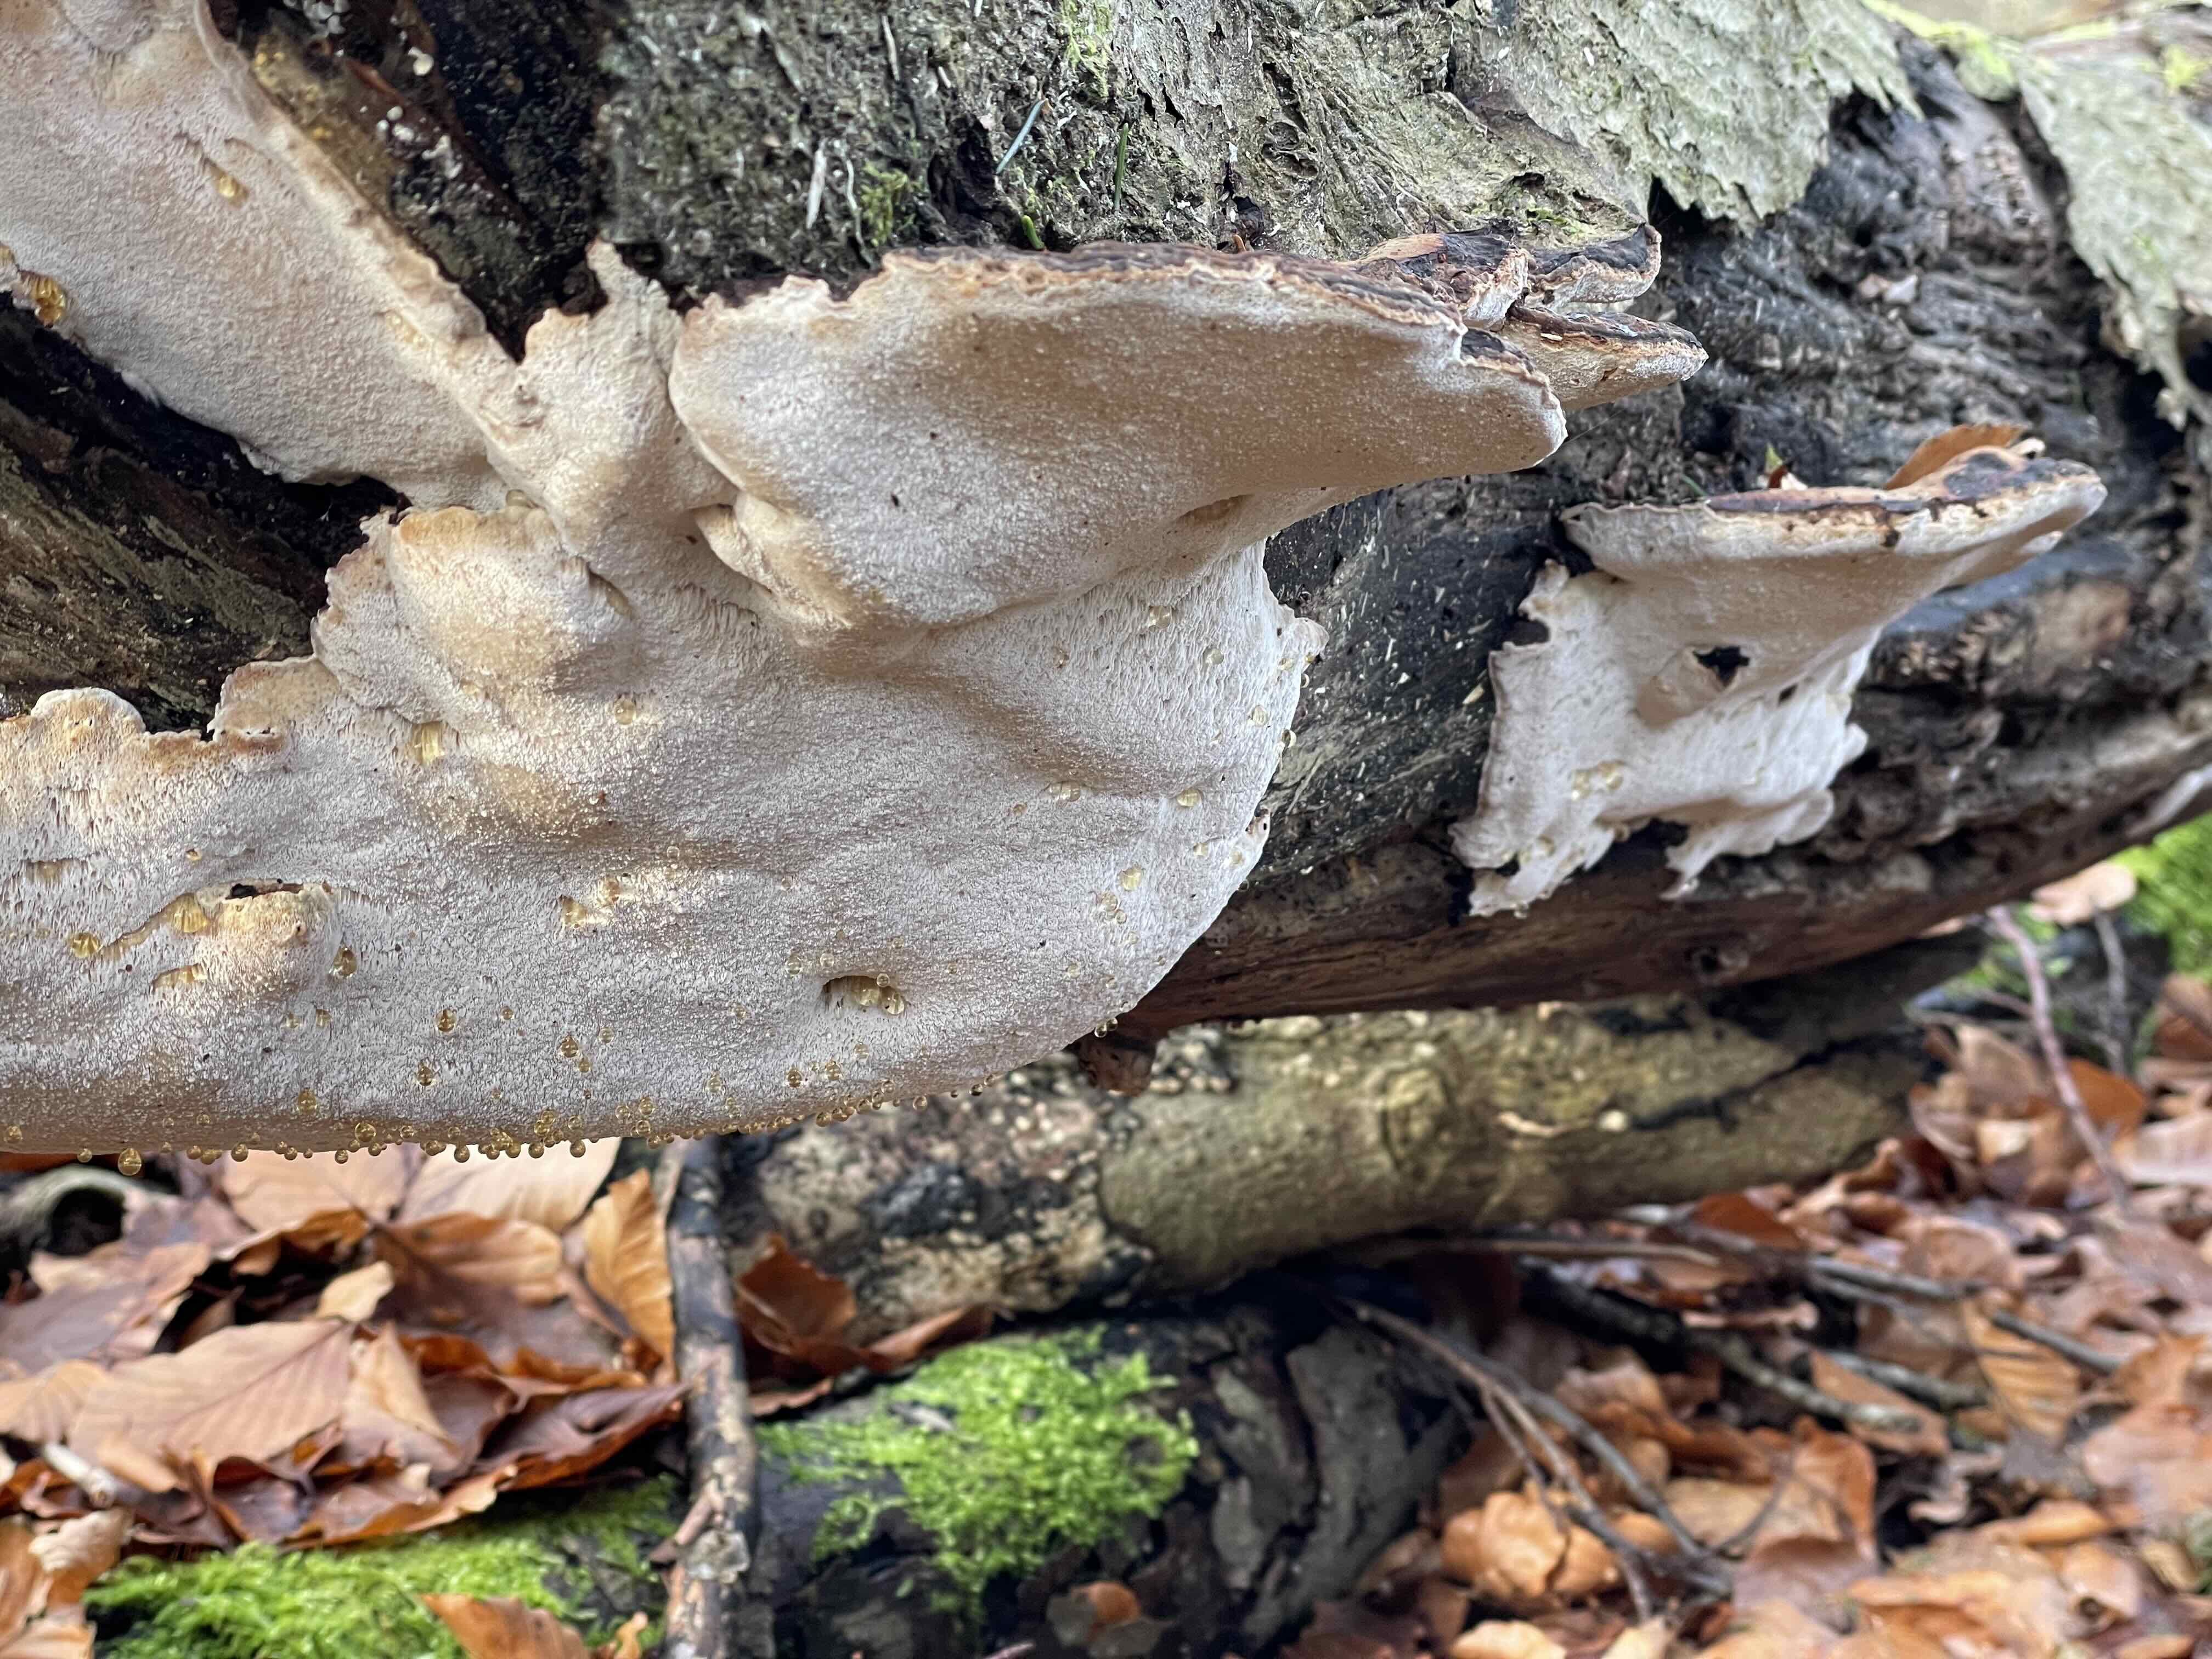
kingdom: Fungi
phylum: Basidiomycota
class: Agaricomycetes
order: Polyporales
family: Ischnodermataceae
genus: Ischnoderma
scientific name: Ischnoderma resinosum
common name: løv-tjæreporesvamp
